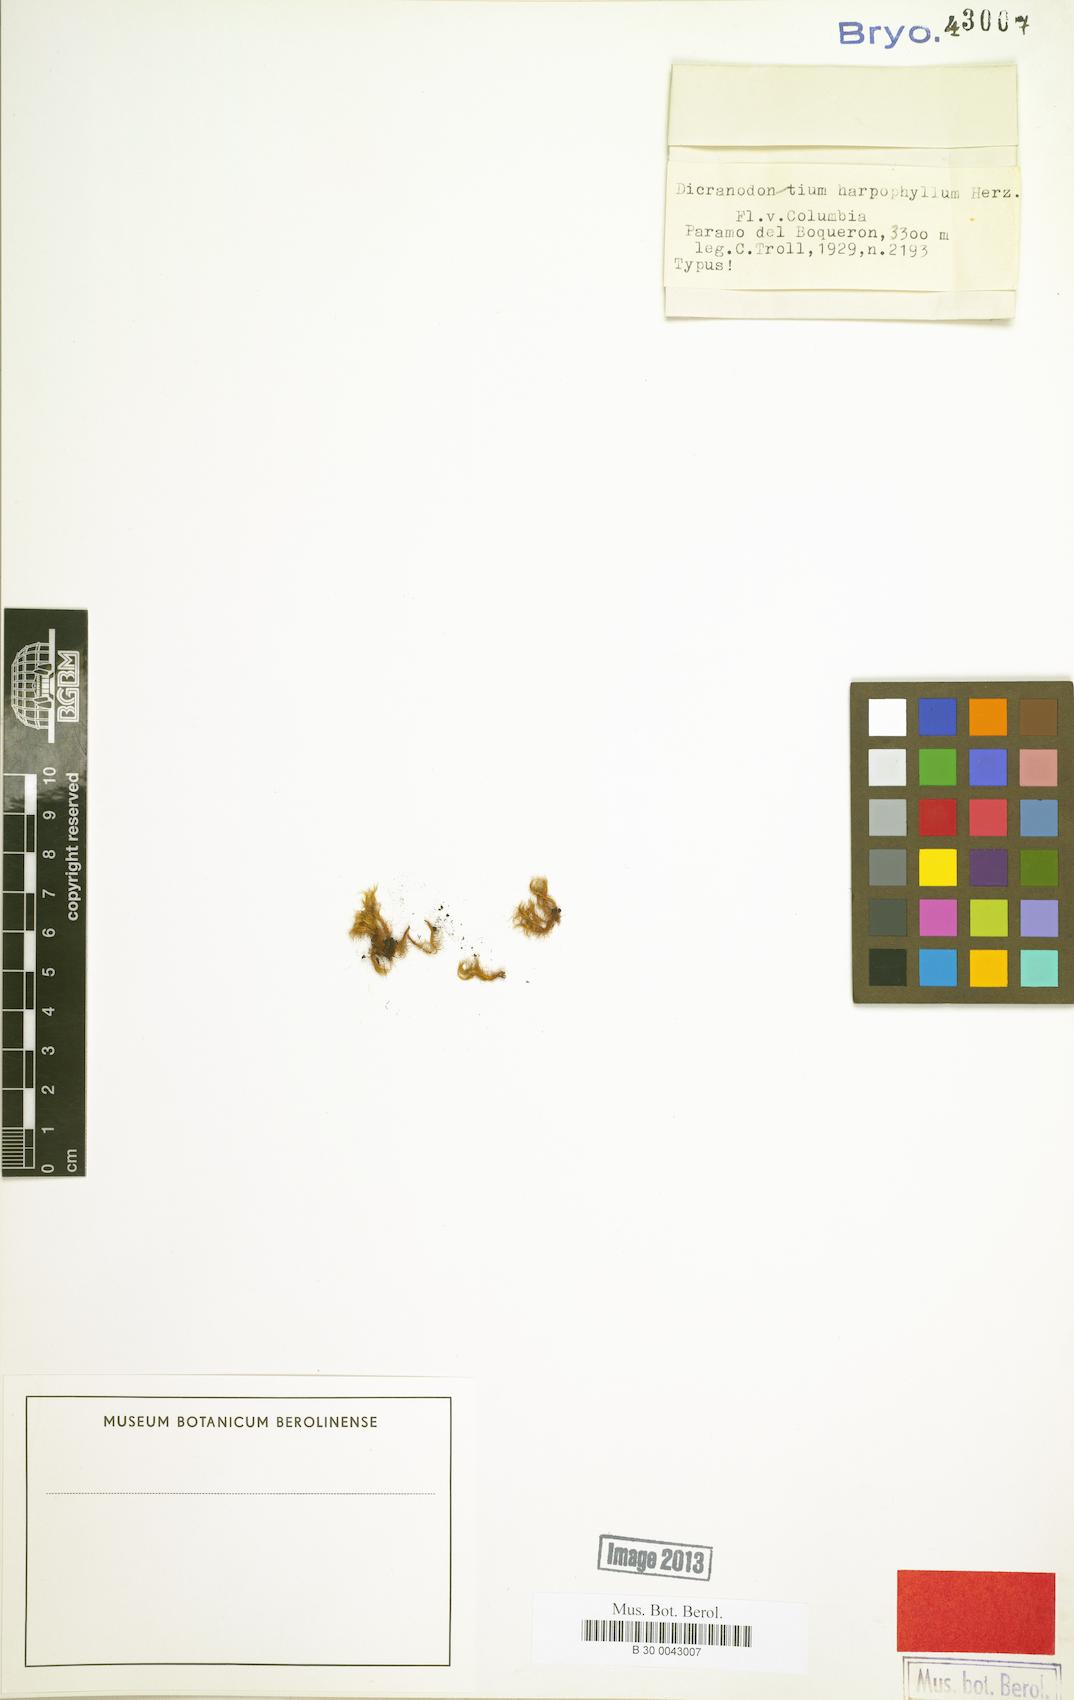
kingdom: Plantae
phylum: Bryophyta
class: Bryopsida
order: Dicranales
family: Leucobryaceae
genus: Dicranodontium
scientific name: Dicranodontium
